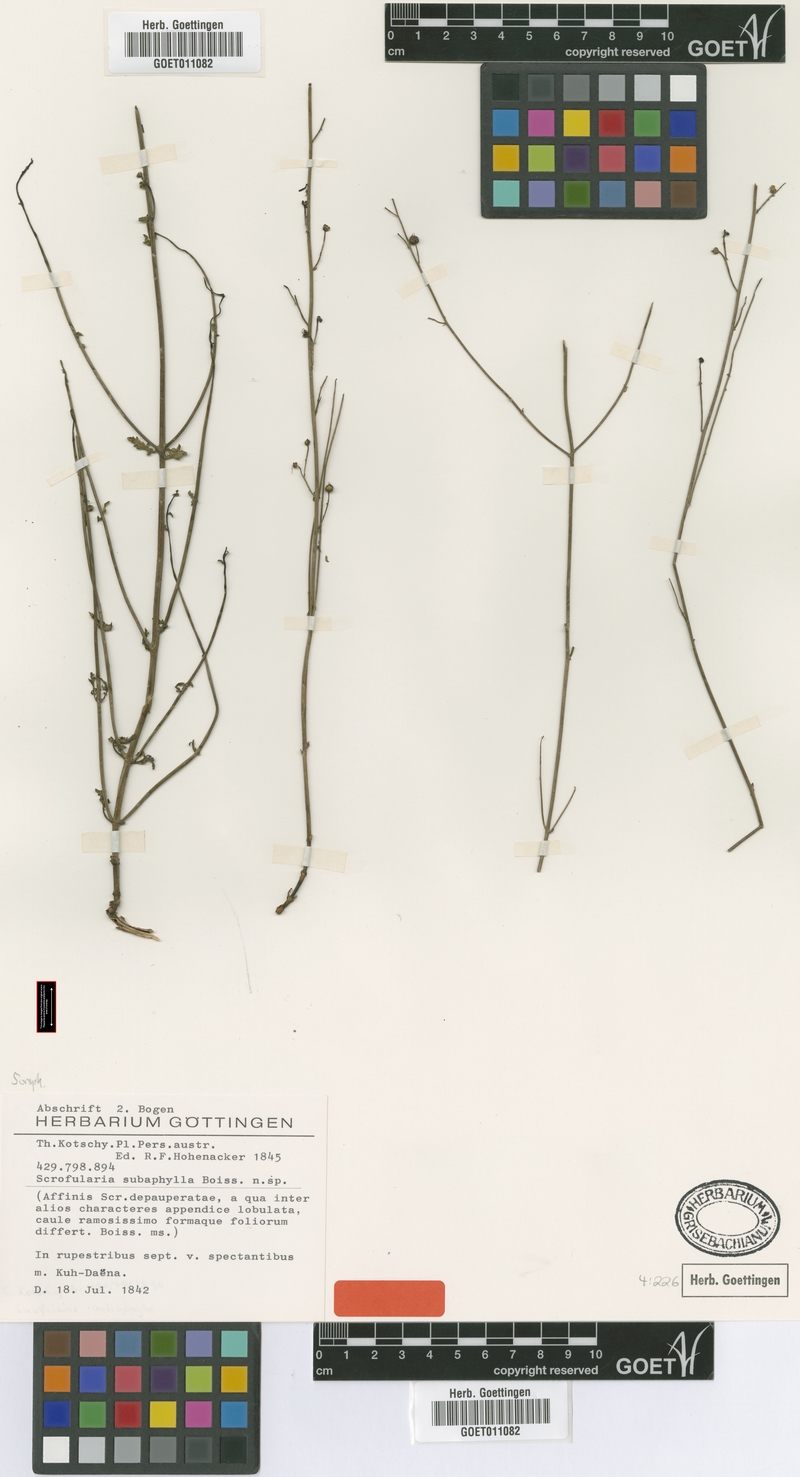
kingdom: Plantae
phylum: Tracheophyta
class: Magnoliopsida
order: Lamiales
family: Scrophulariaceae
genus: Scrophularia
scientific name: Scrophularia subaphylla
